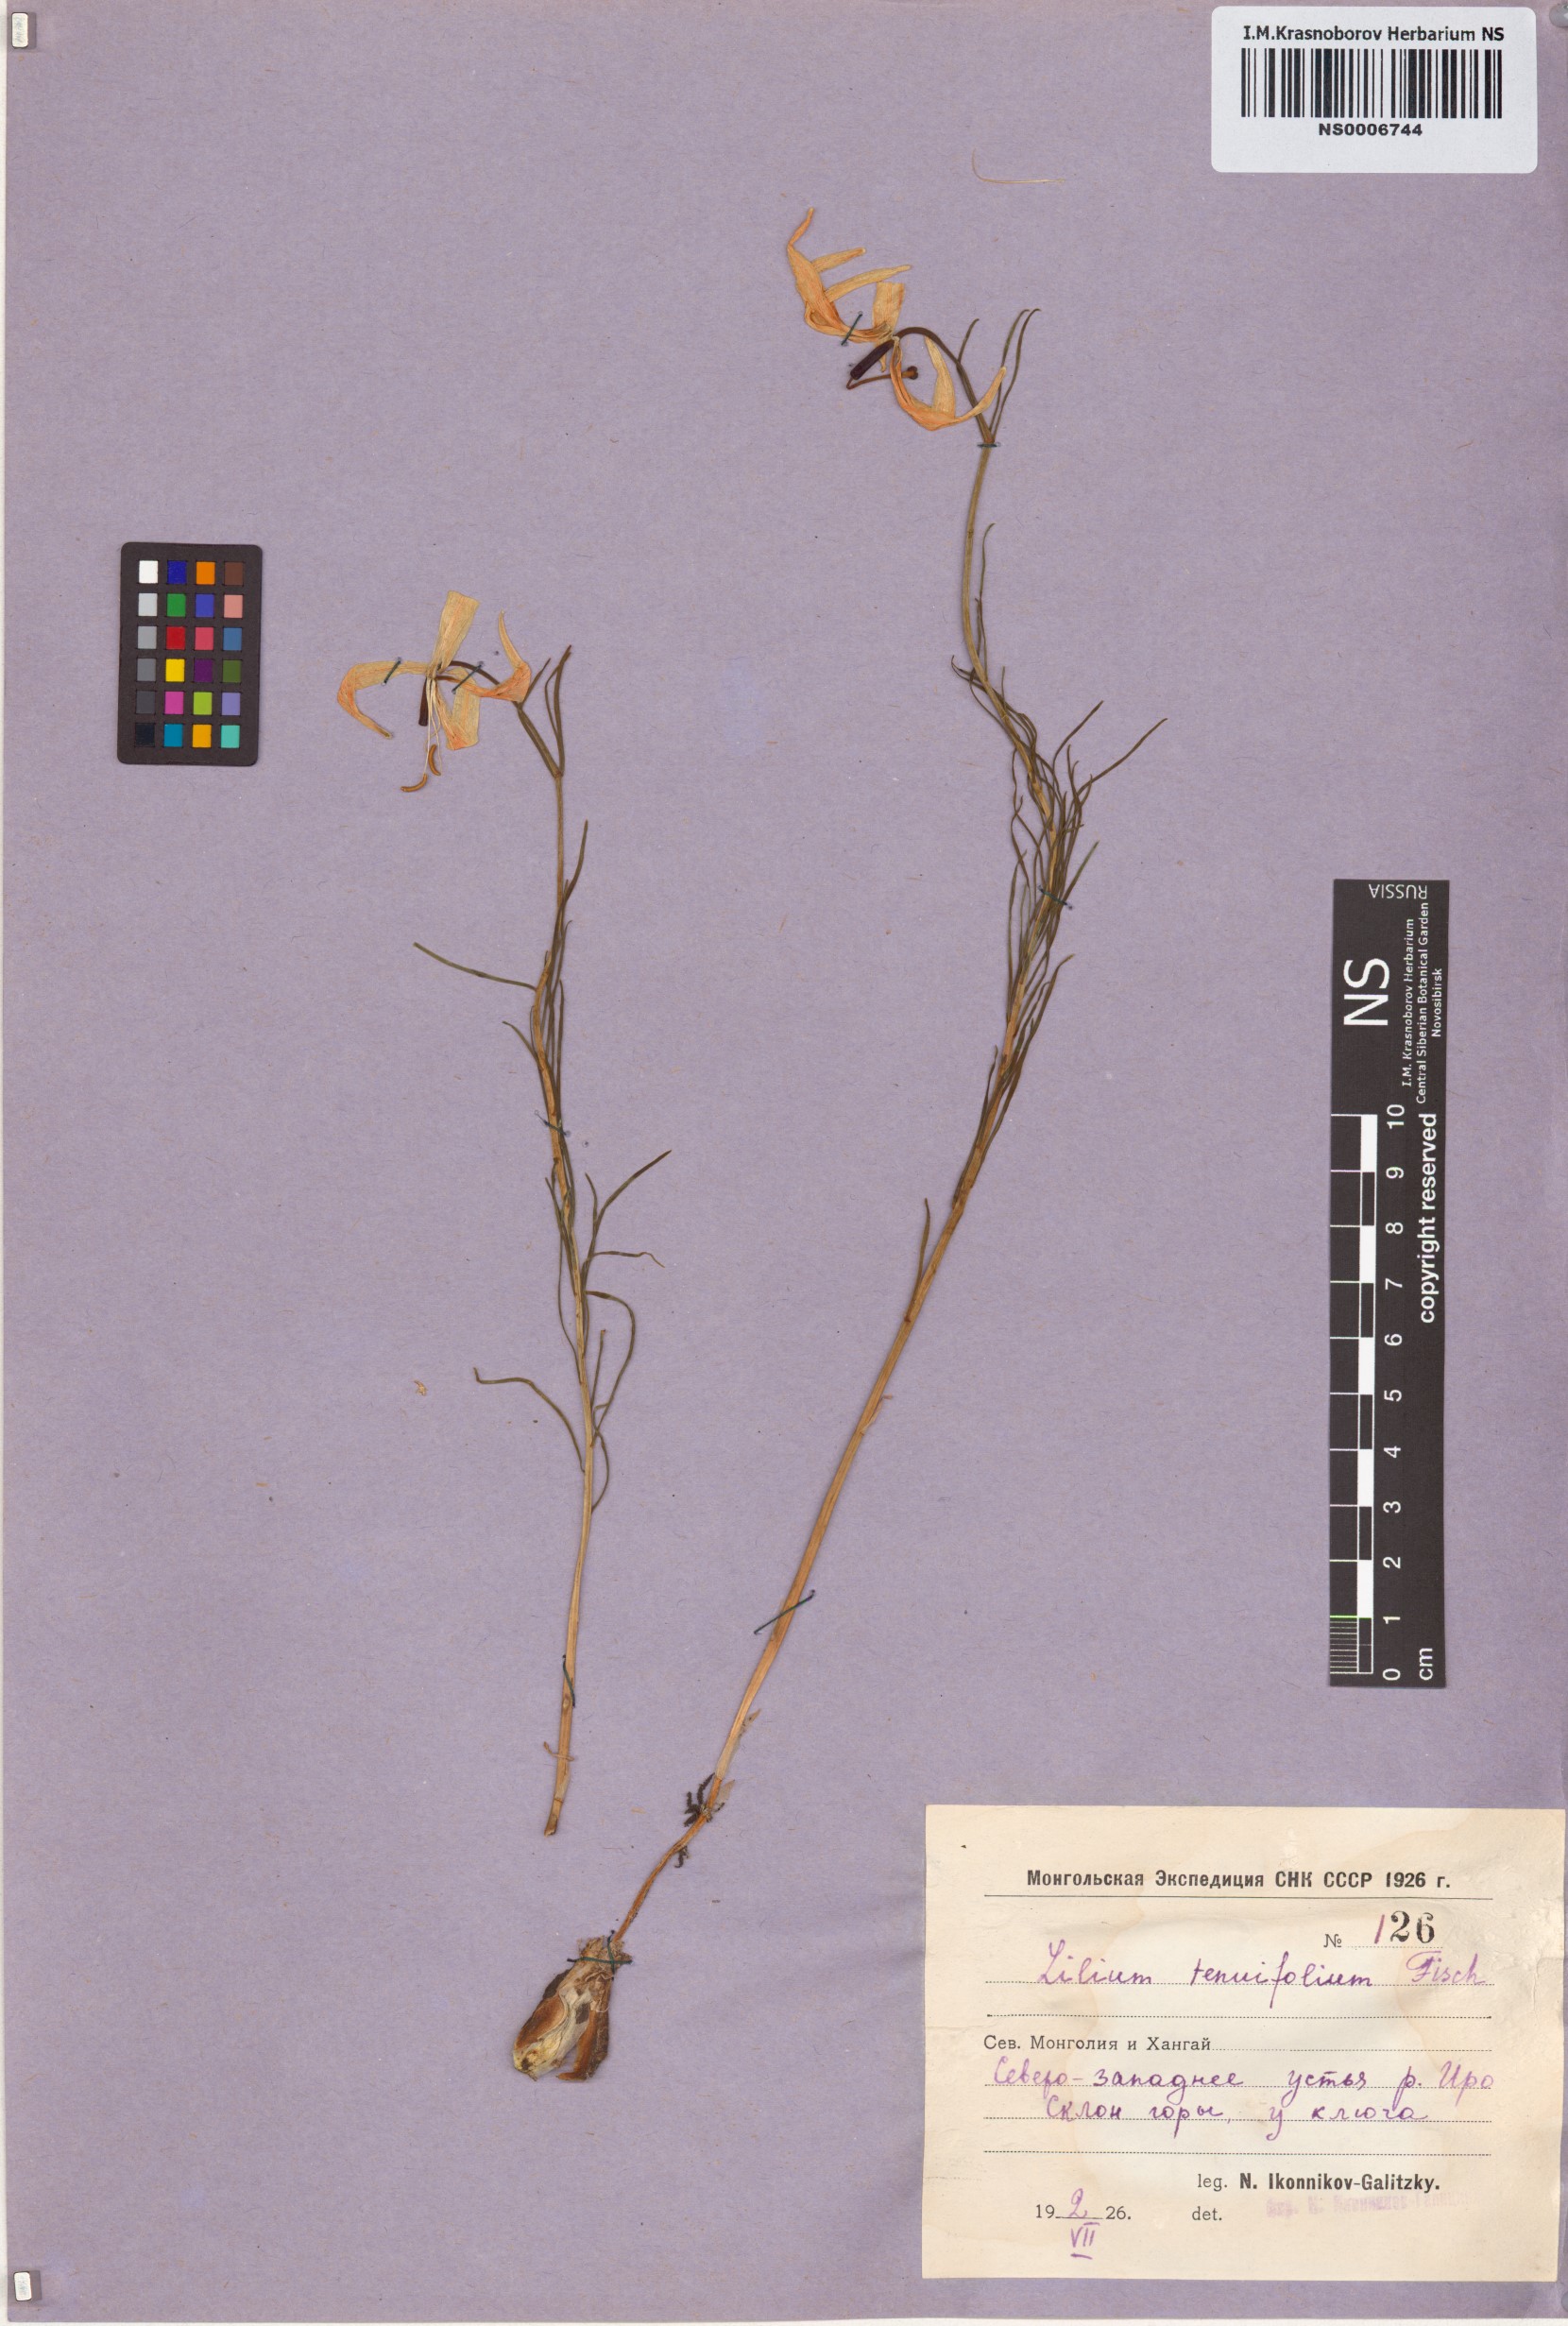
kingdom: Plantae
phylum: Tracheophyta
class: Liliopsida
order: Liliales
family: Liliaceae
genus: Lilium
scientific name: Lilium pumilum
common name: Coral lily
